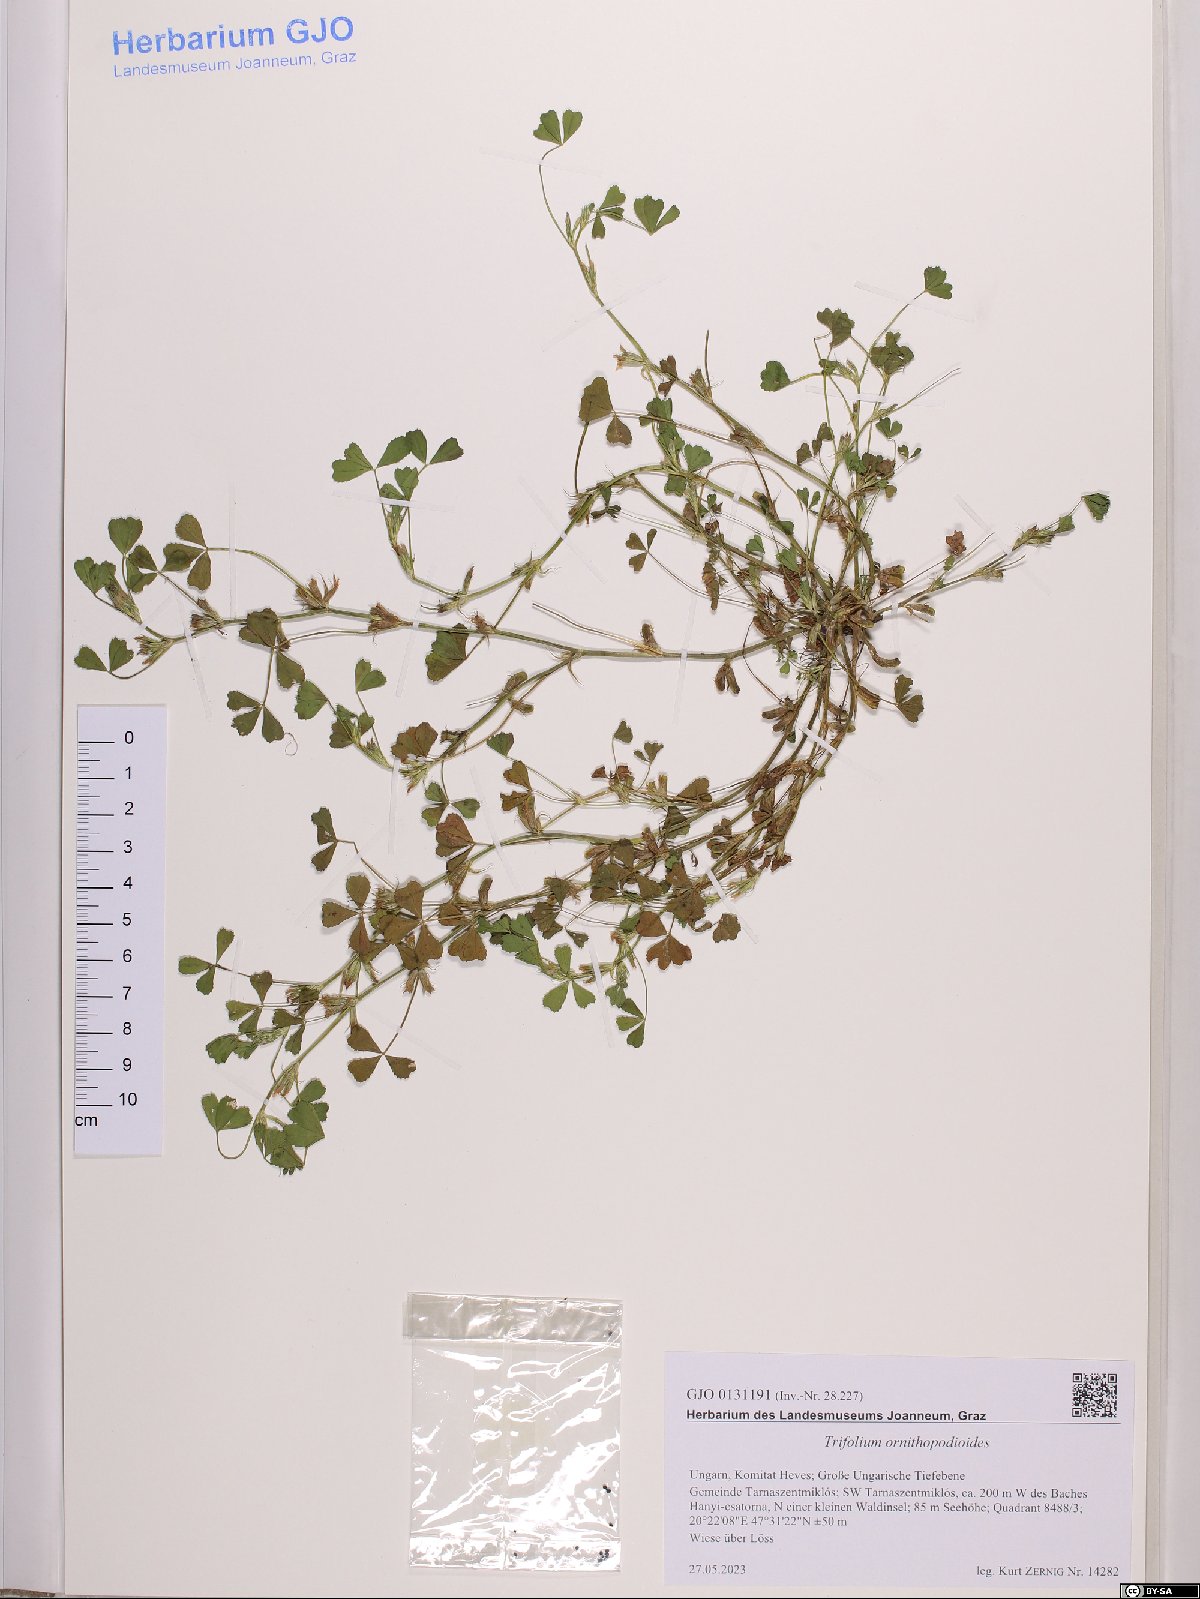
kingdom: Plantae
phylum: Tracheophyta
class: Magnoliopsida
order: Fabales
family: Fabaceae
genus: Trifolium
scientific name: Trifolium ornithopodioides
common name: Bird's-foot clover
